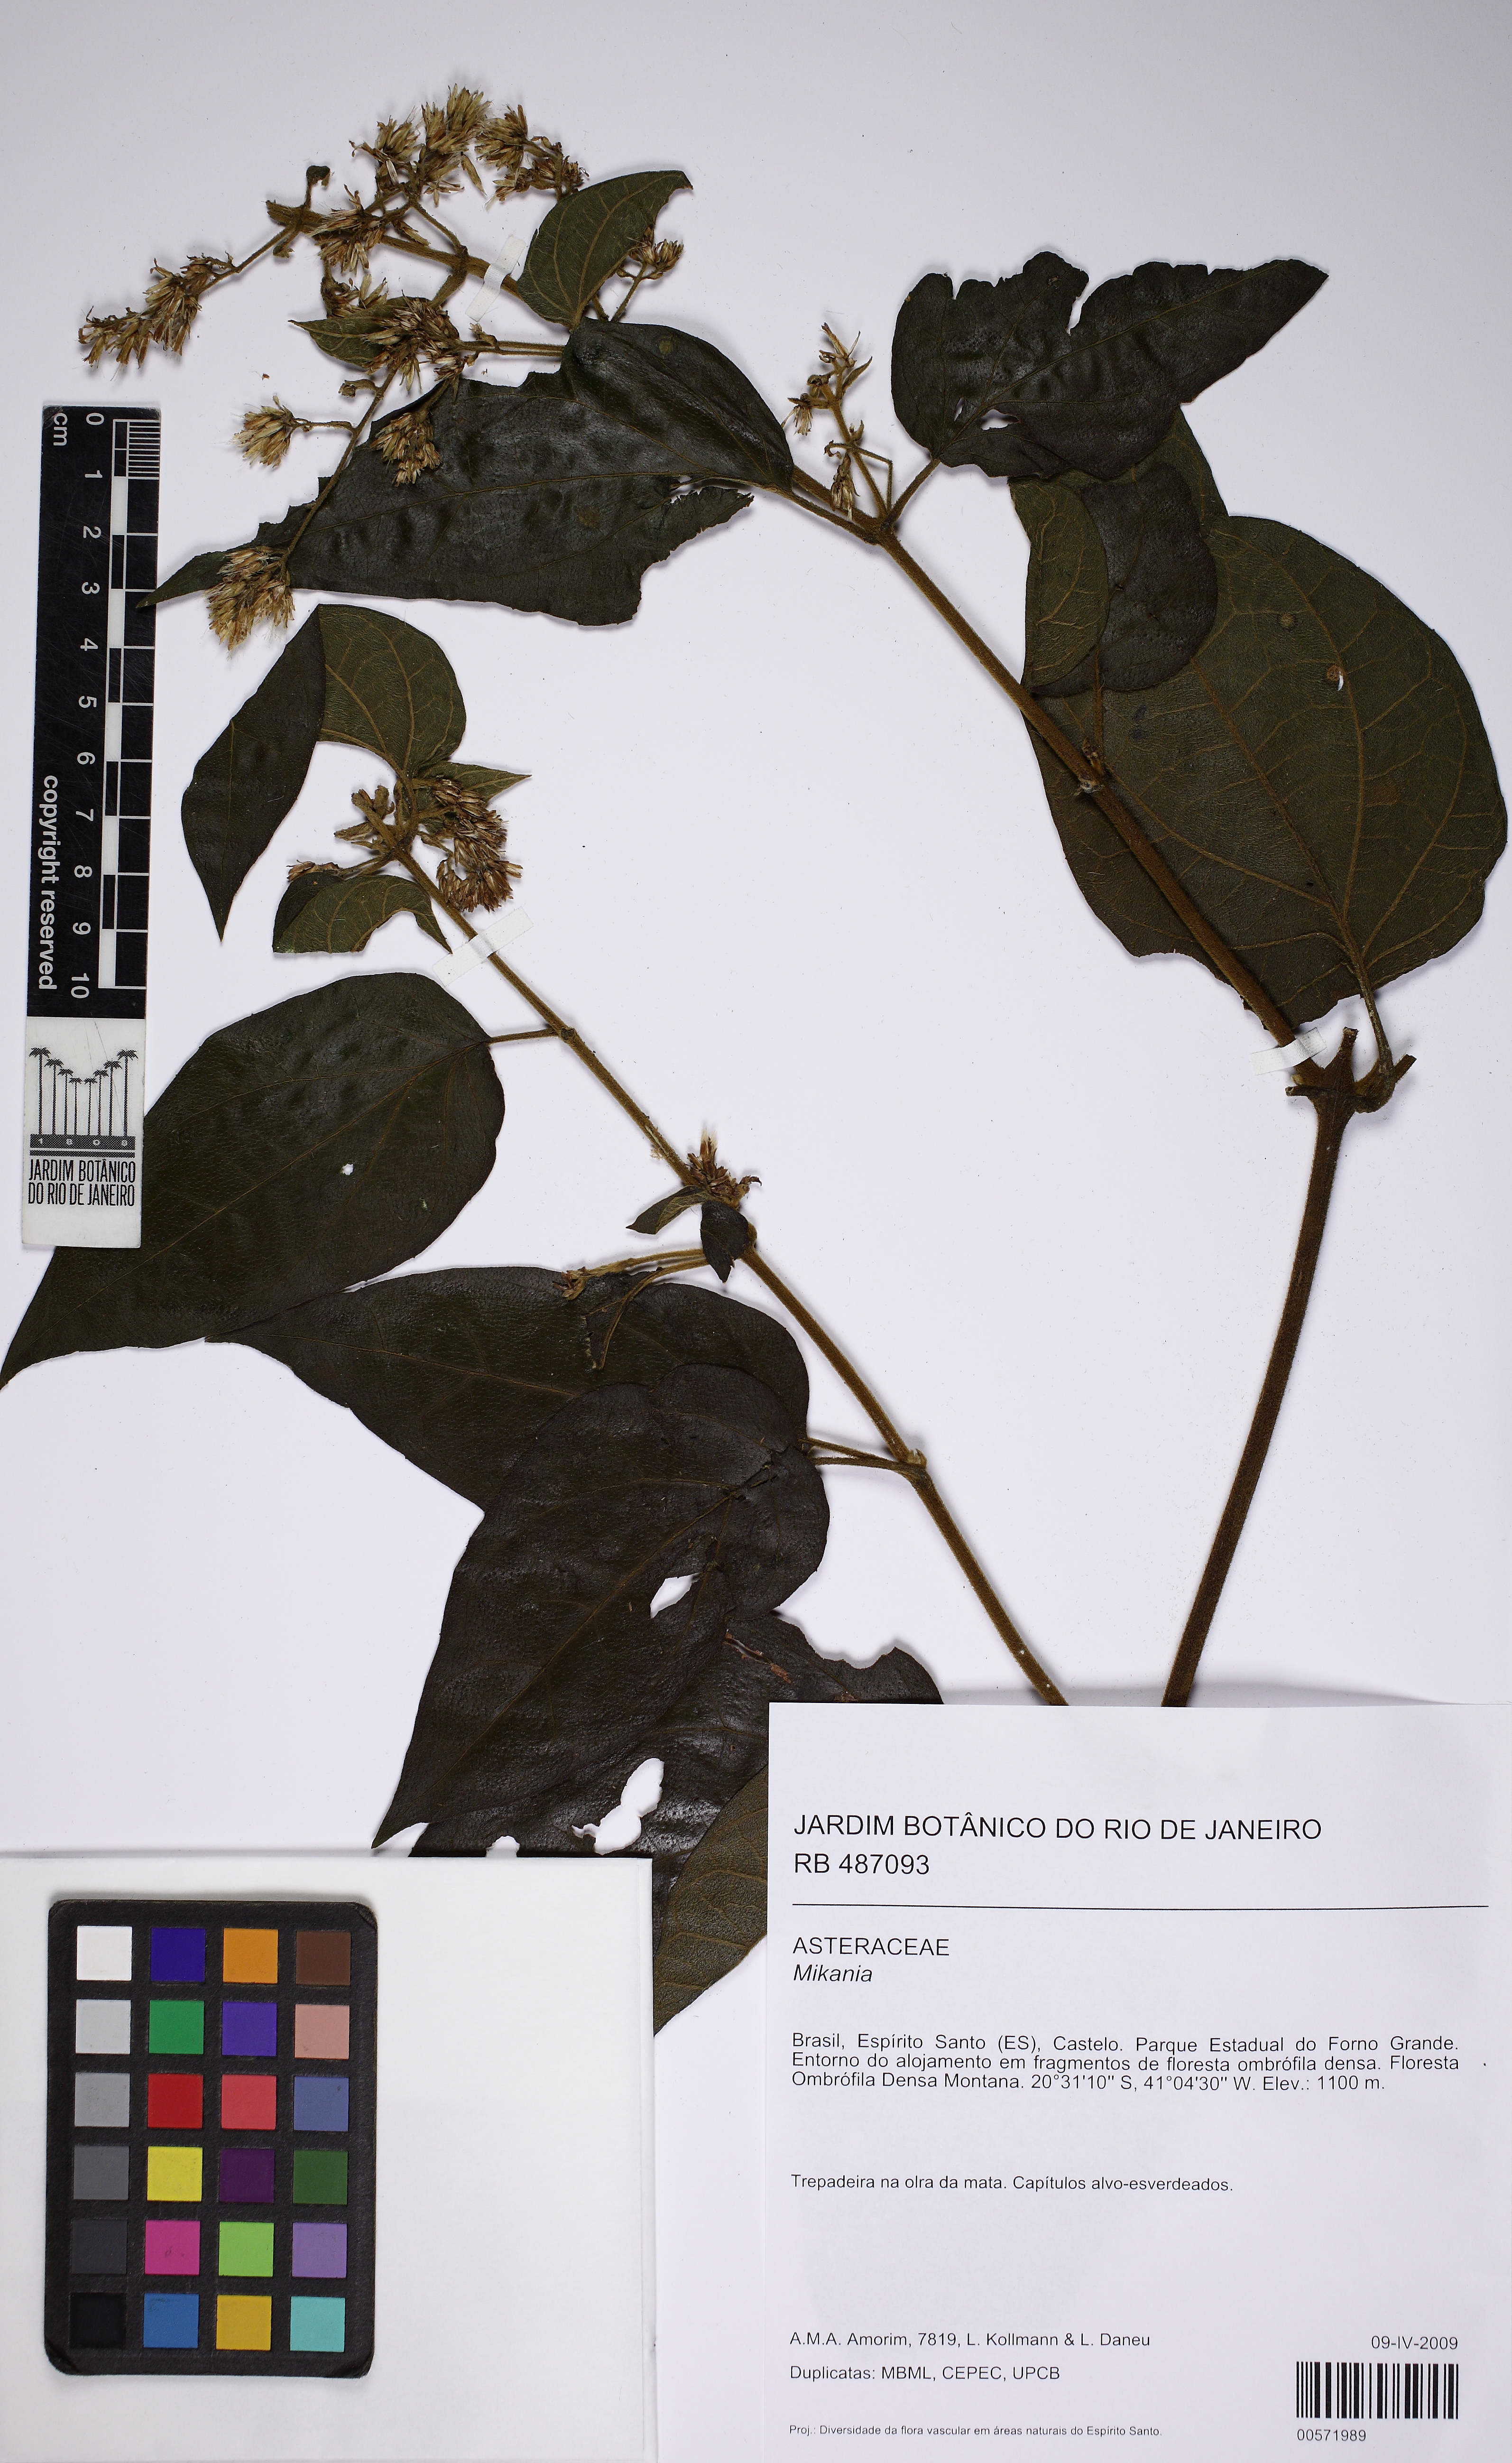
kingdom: Plantae
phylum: Tracheophyta
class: Magnoliopsida
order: Asterales
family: Asteraceae
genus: Mikania
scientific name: Mikania
